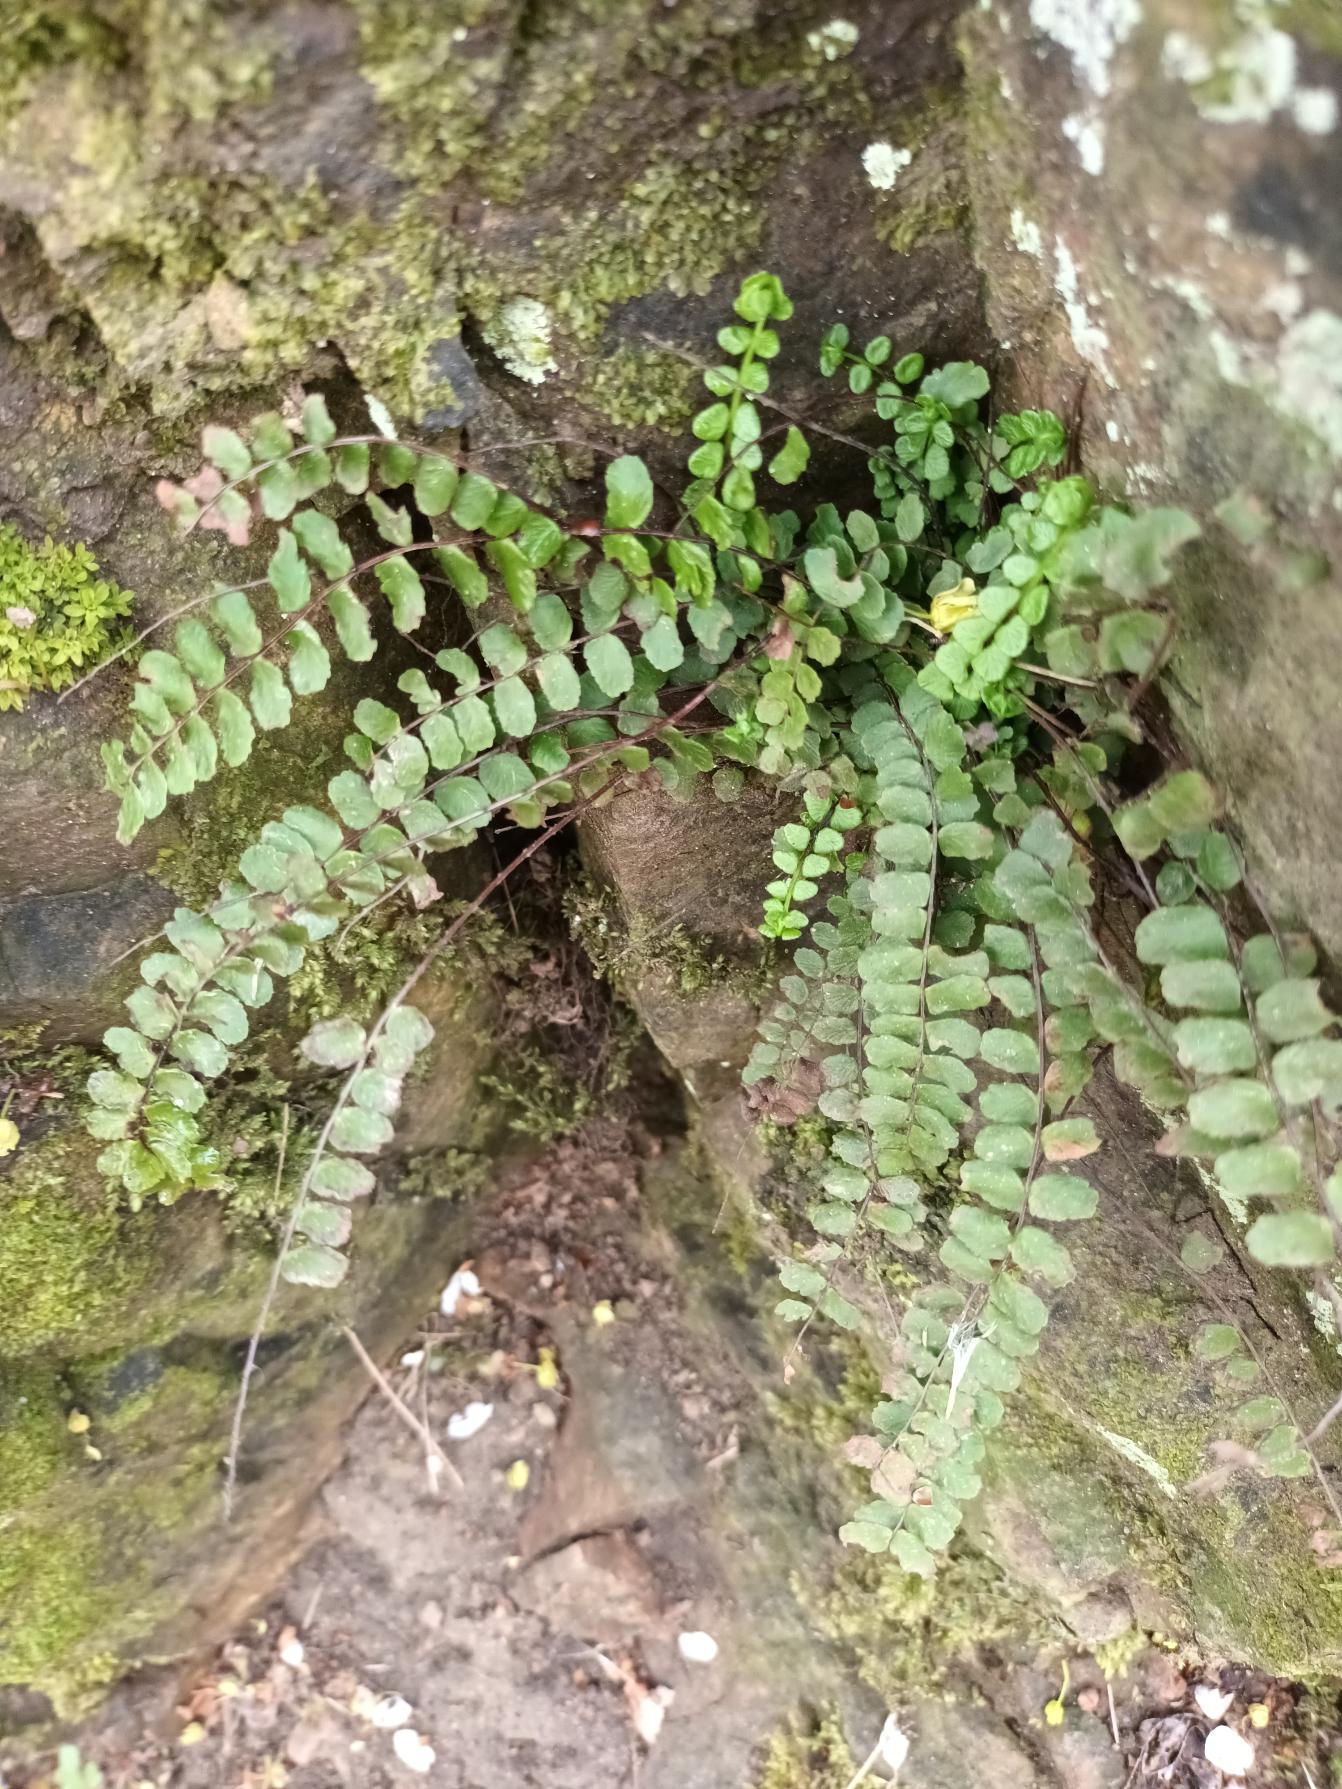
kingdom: Plantae
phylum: Tracheophyta
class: Polypodiopsida
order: Polypodiales
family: Aspleniaceae
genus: Asplenium
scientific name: Asplenium trichomanes
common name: Rundfinnet radeløv
